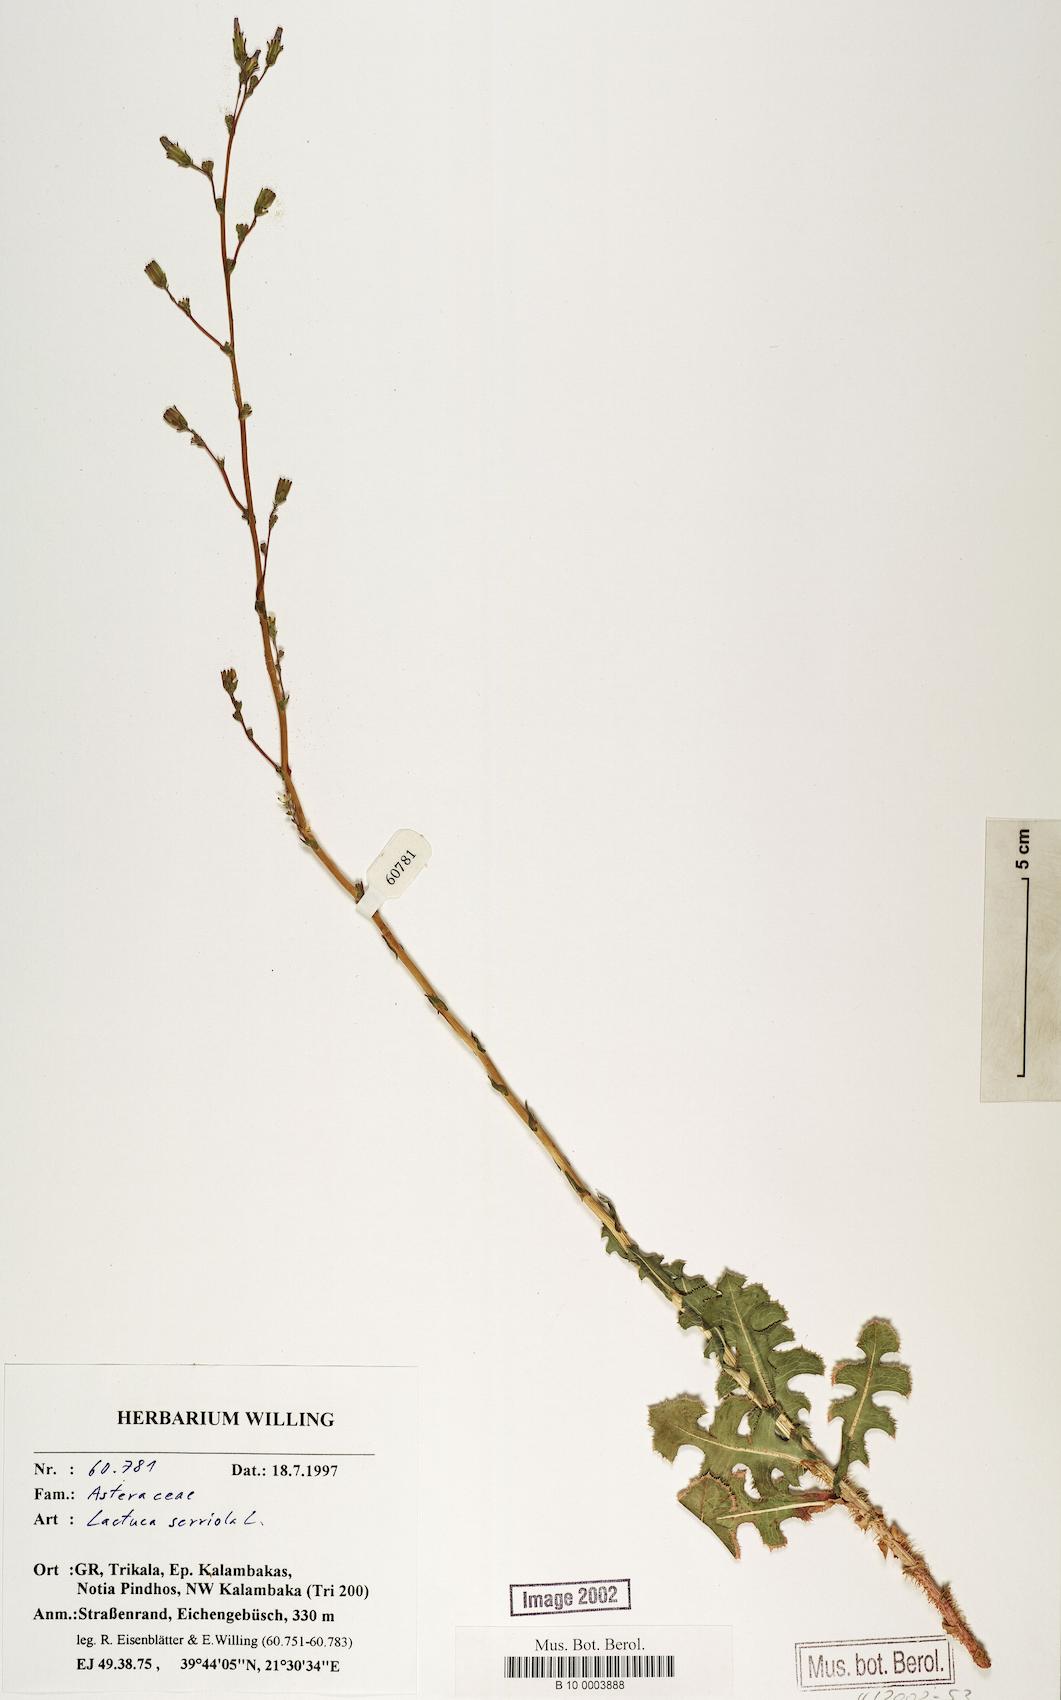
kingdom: Plantae
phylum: Tracheophyta
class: Magnoliopsida
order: Asterales
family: Asteraceae
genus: Lactuca
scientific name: Lactuca serriola
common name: Prickly lettuce
